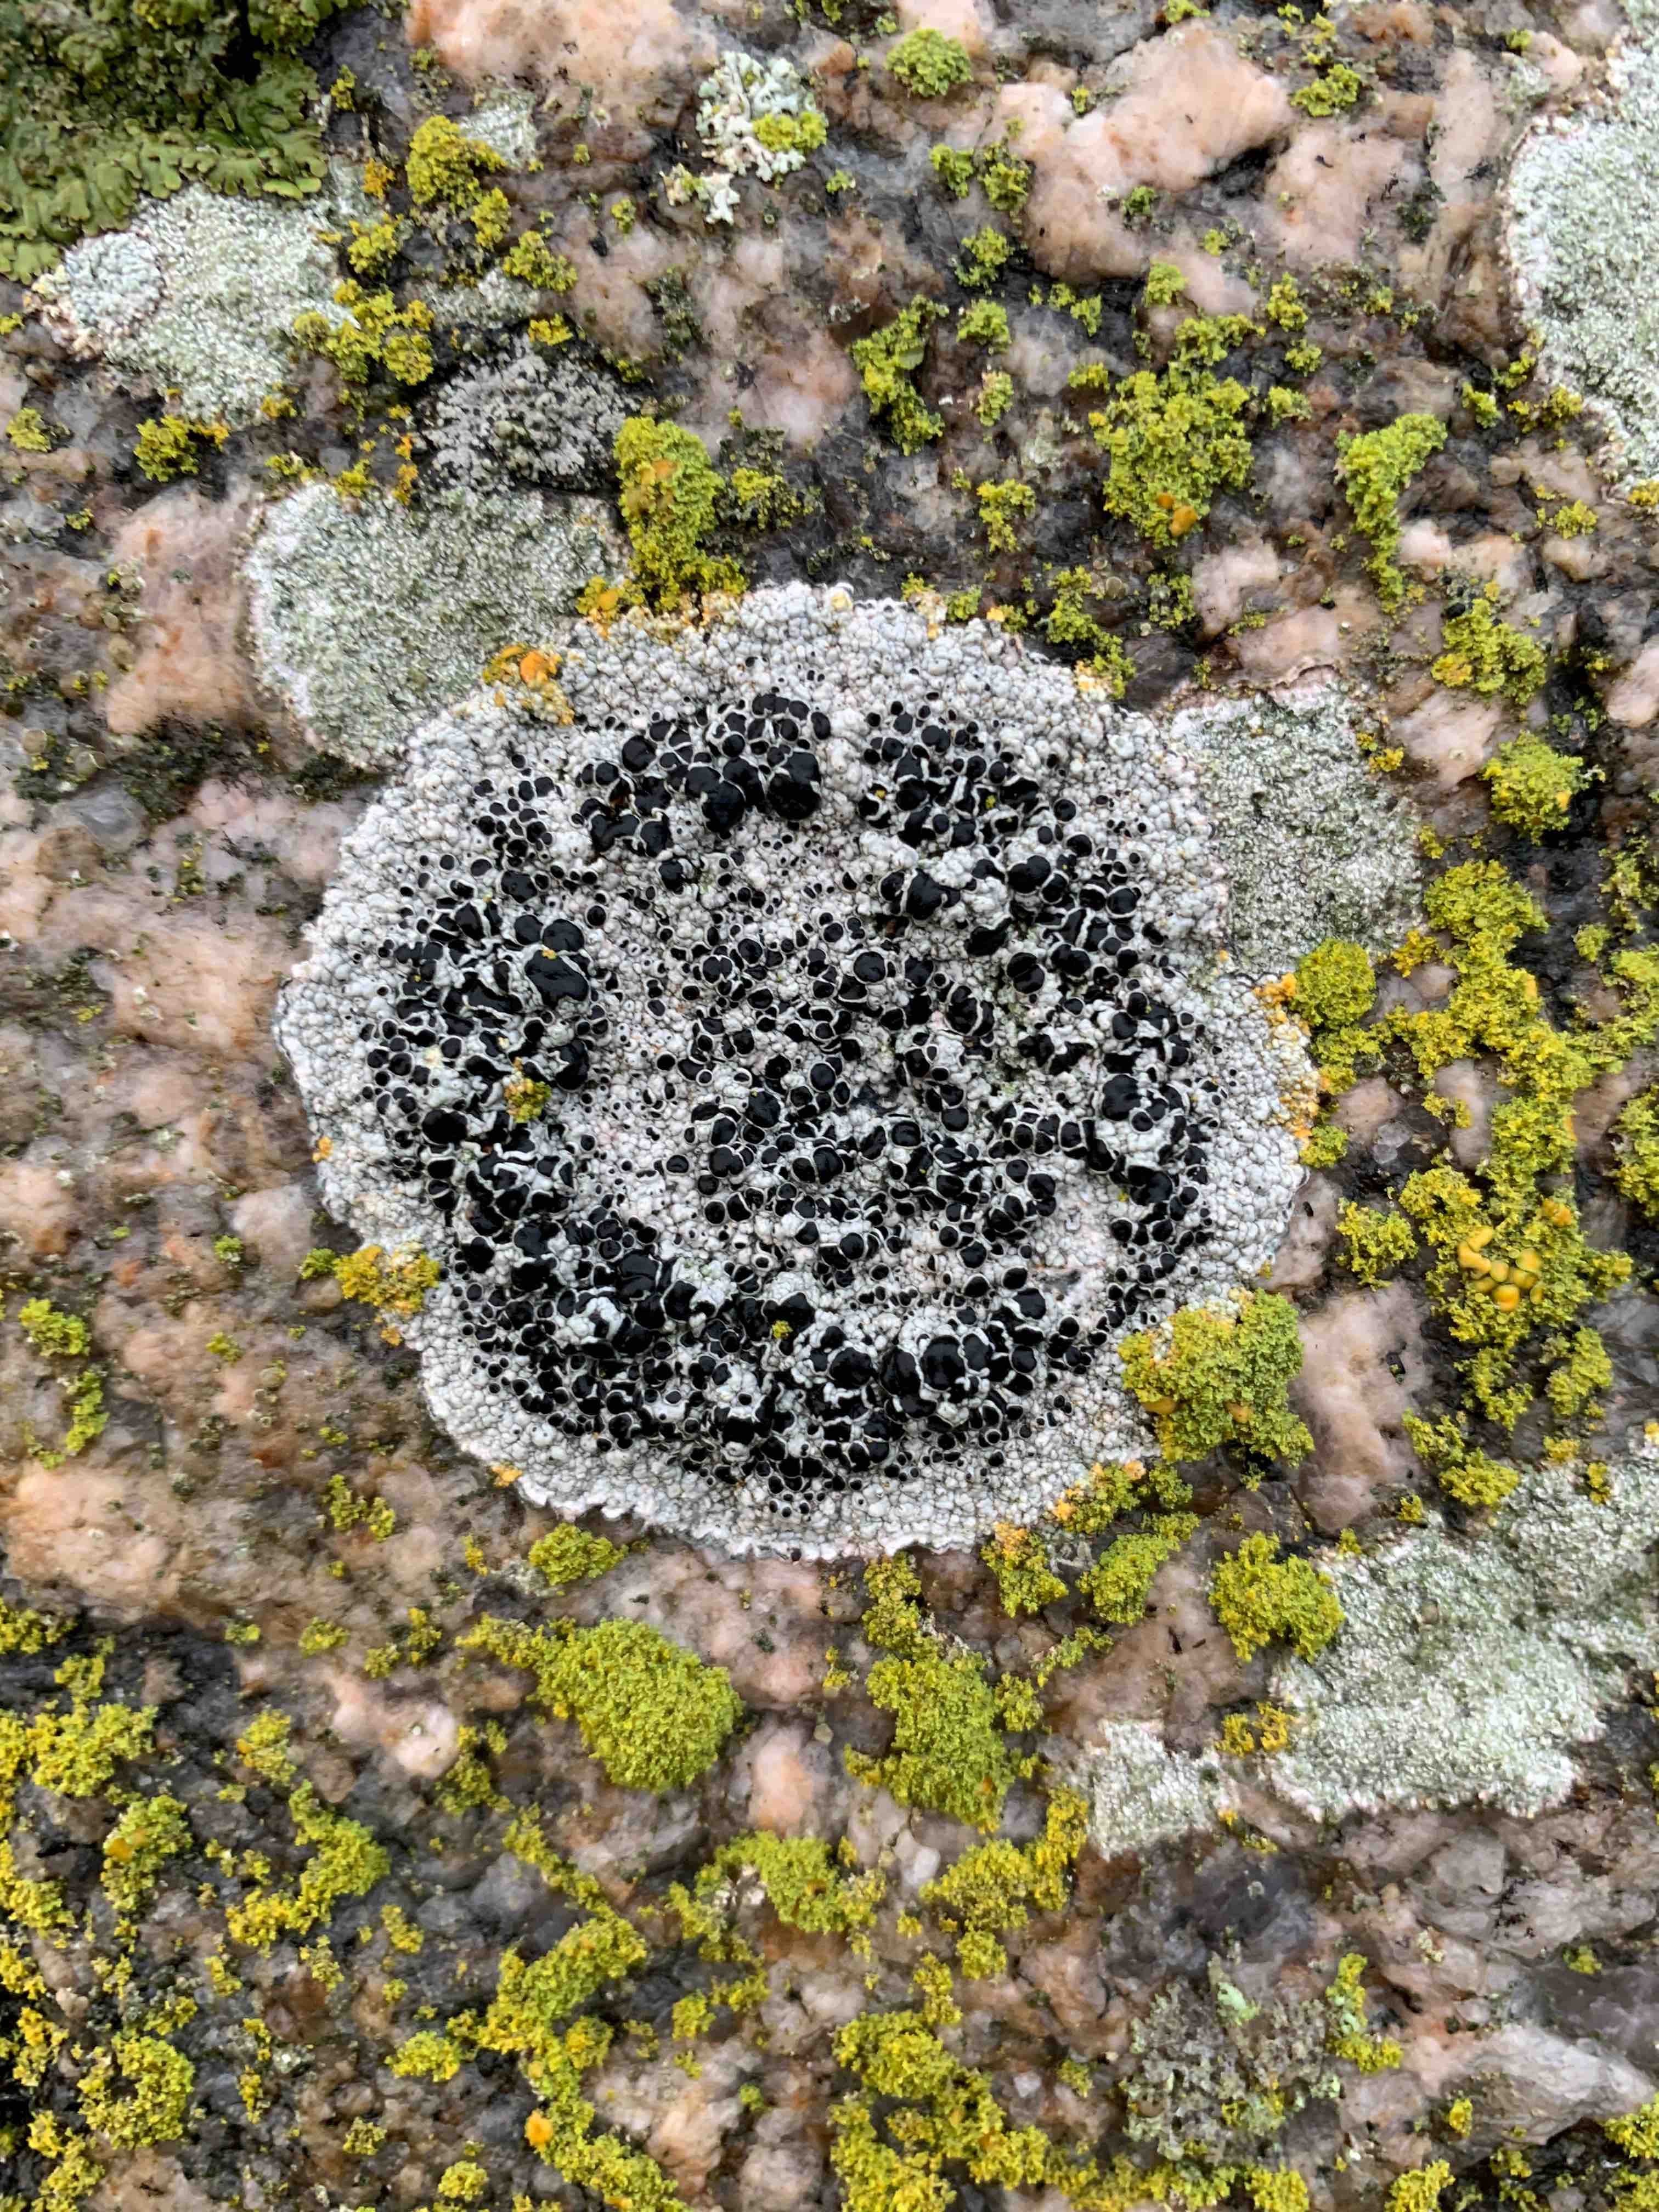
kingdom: Fungi
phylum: Ascomycota
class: Lecanoromycetes
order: Lecanorales
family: Tephromelataceae
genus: Tephromela
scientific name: Tephromela atra
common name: sortfrugtet kantskivelav
